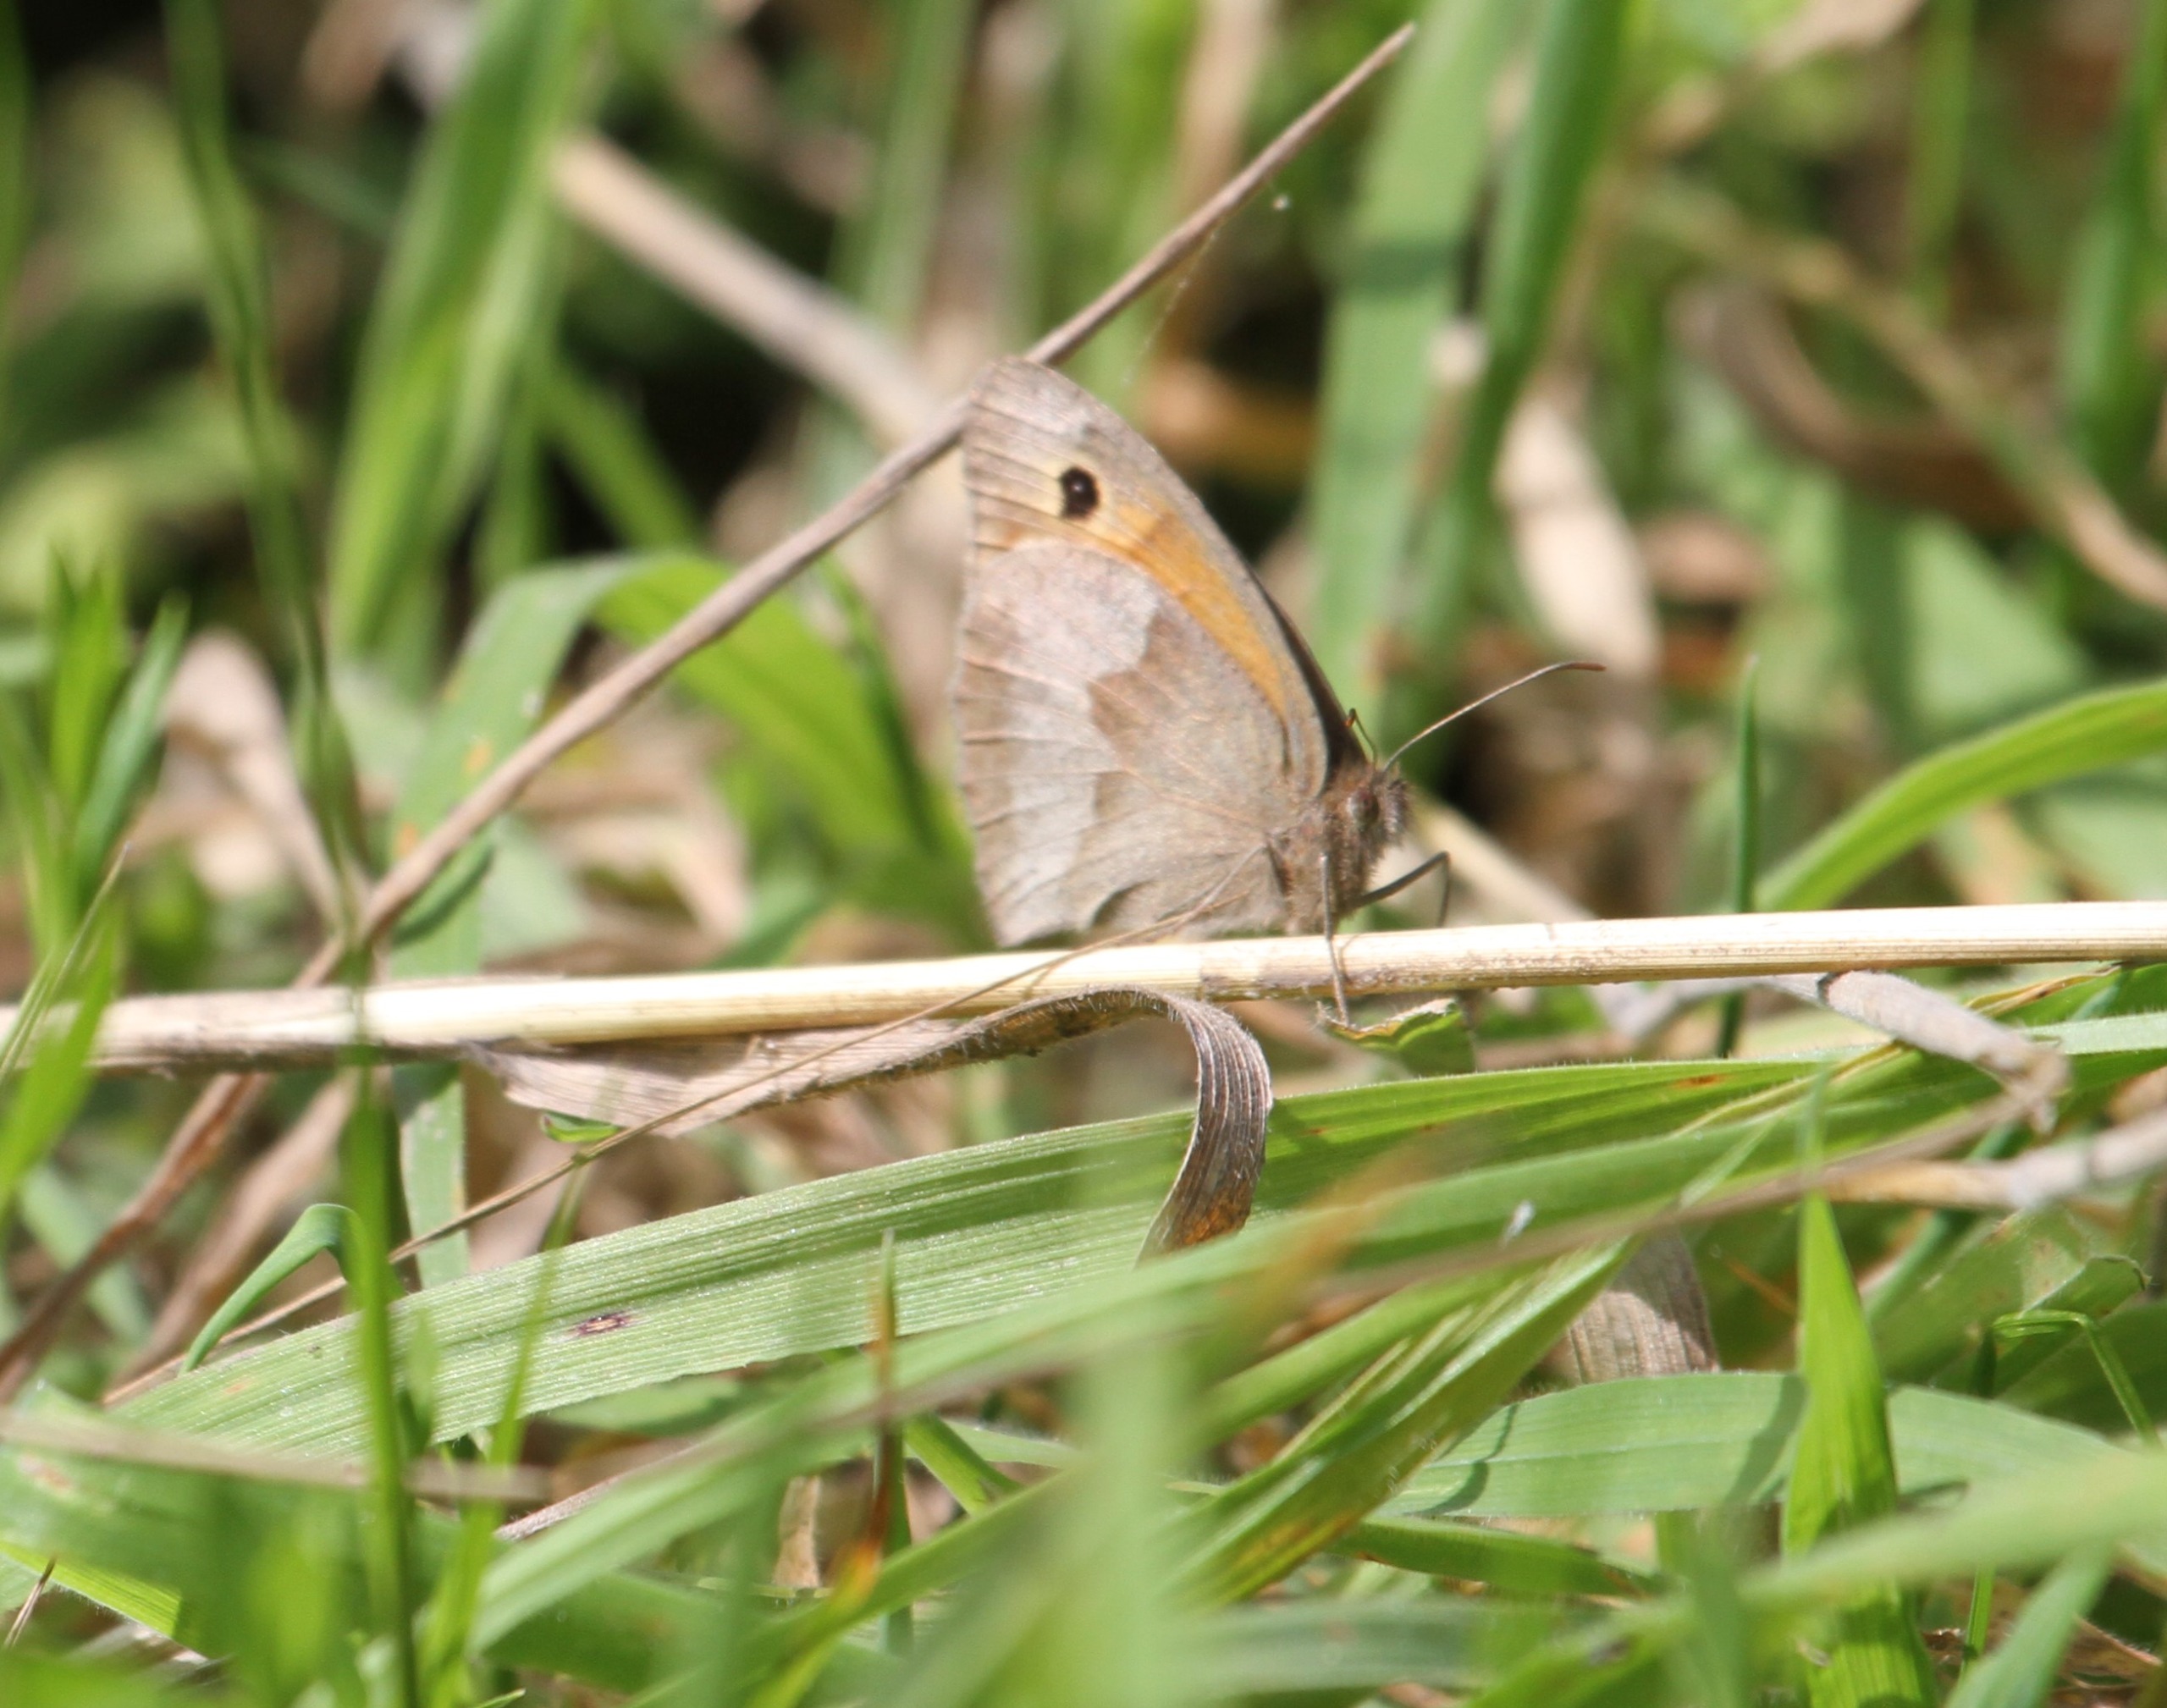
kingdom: Animalia
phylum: Arthropoda
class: Insecta
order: Lepidoptera
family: Nymphalidae
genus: Maniola
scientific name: Maniola jurtina
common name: Græsrandøje
